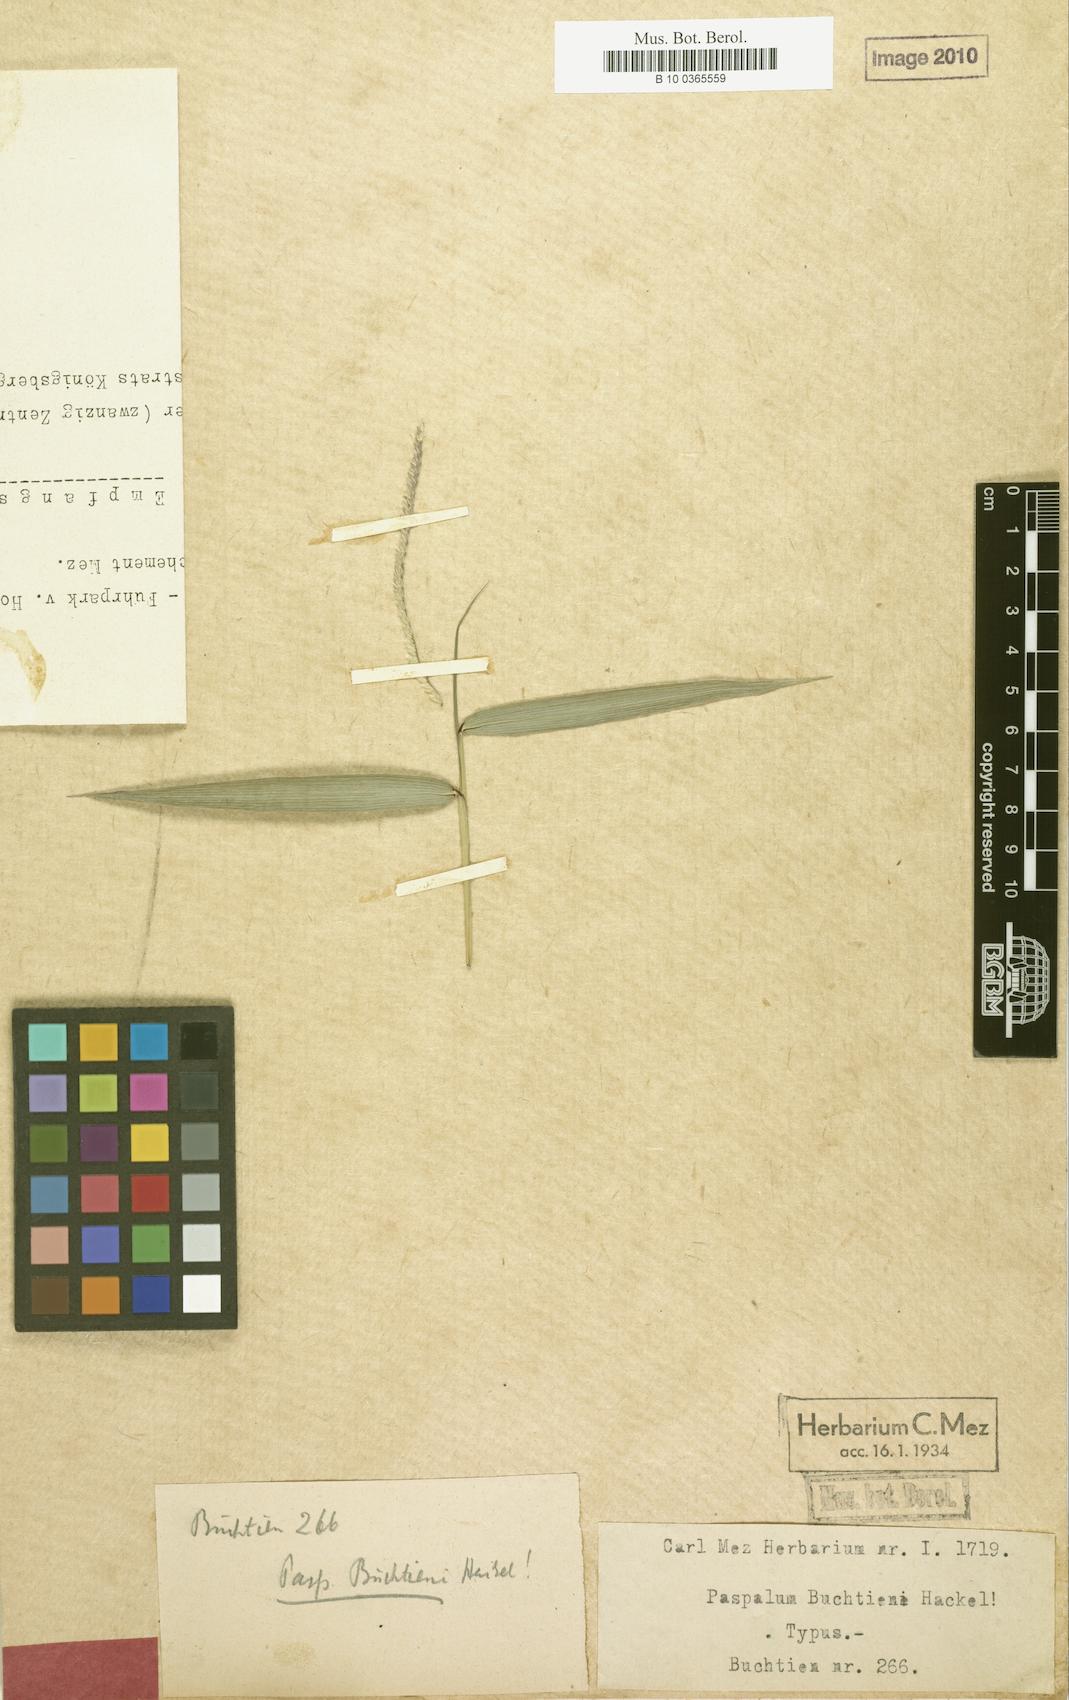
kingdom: Plantae
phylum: Tracheophyta
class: Liliopsida
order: Poales
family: Poaceae
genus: Paspalum
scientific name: Paspalum buchtienii
